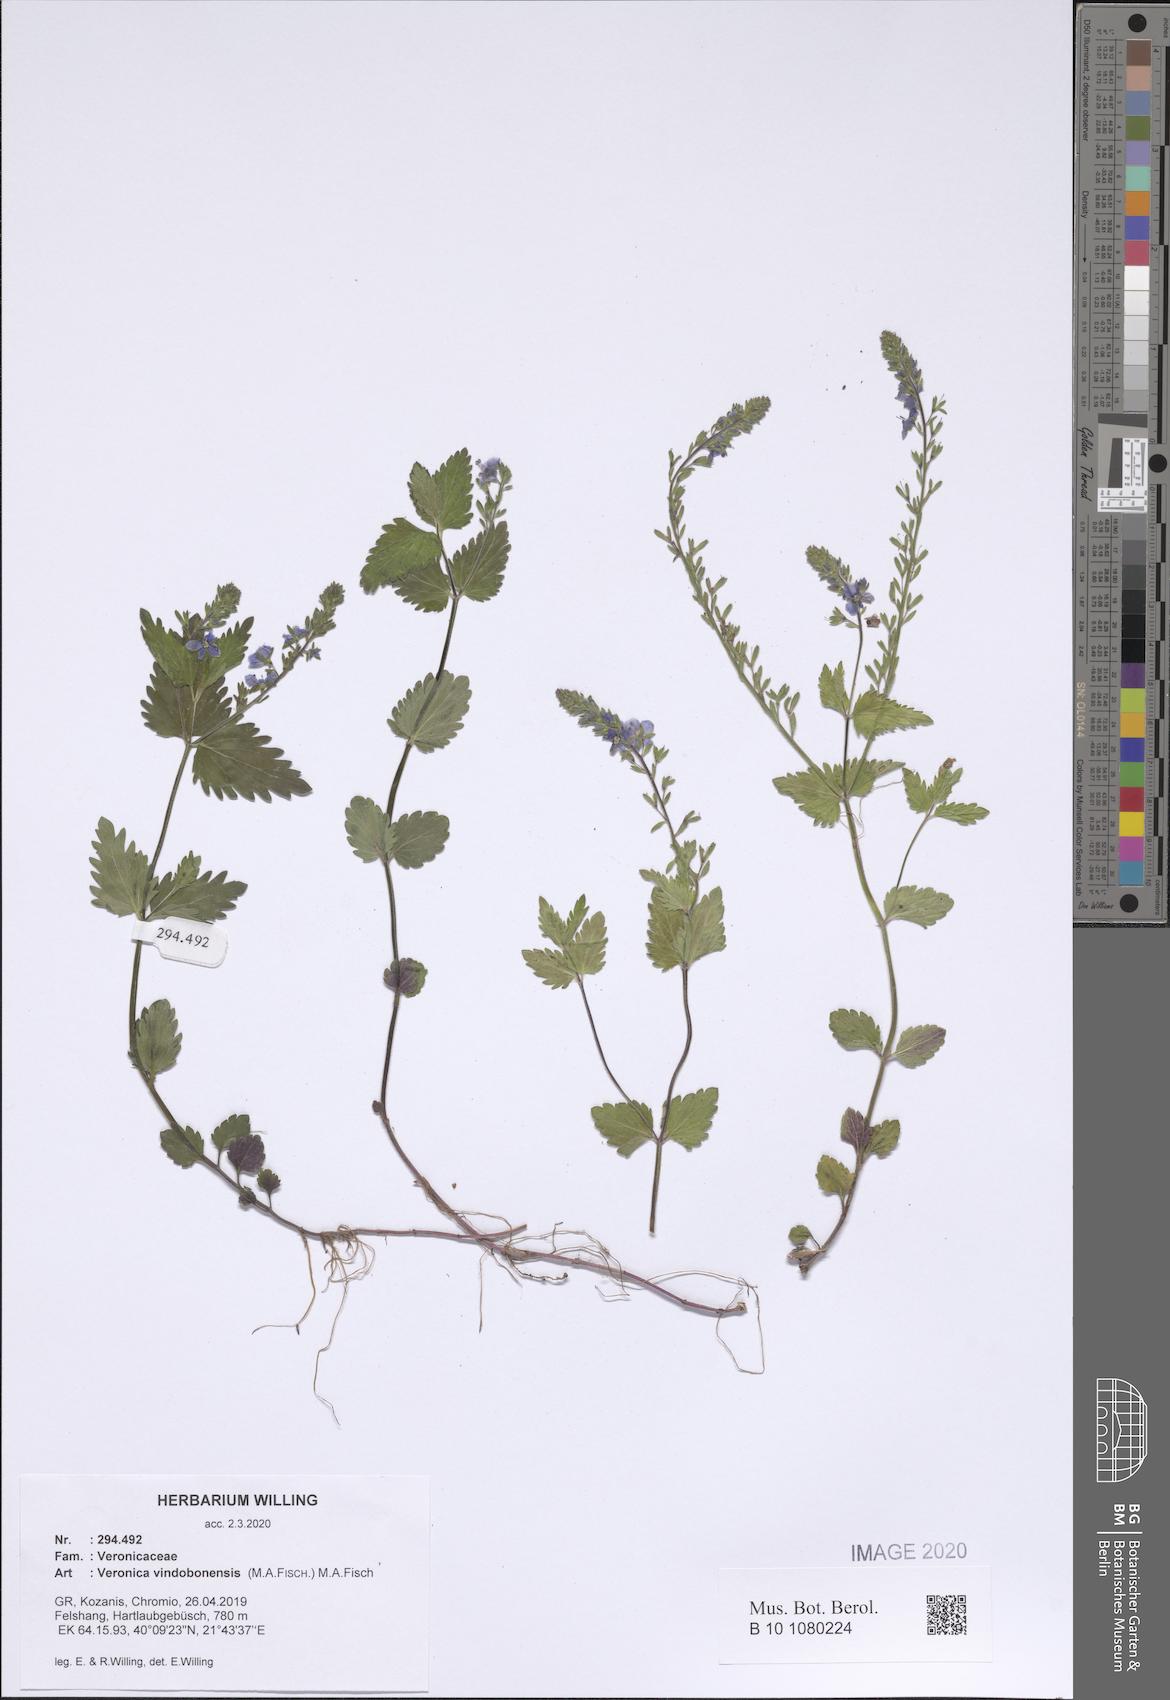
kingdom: Plantae
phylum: Tracheophyta
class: Magnoliopsida
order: Lamiales
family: Plantaginaceae
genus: Veronica
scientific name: Veronica vindobonensis
